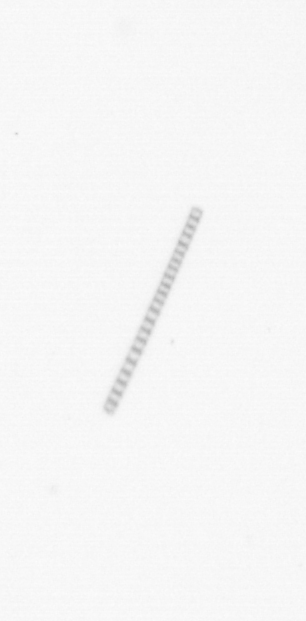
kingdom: Chromista
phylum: Ochrophyta
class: Bacillariophyceae
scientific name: Bacillariophyceae
